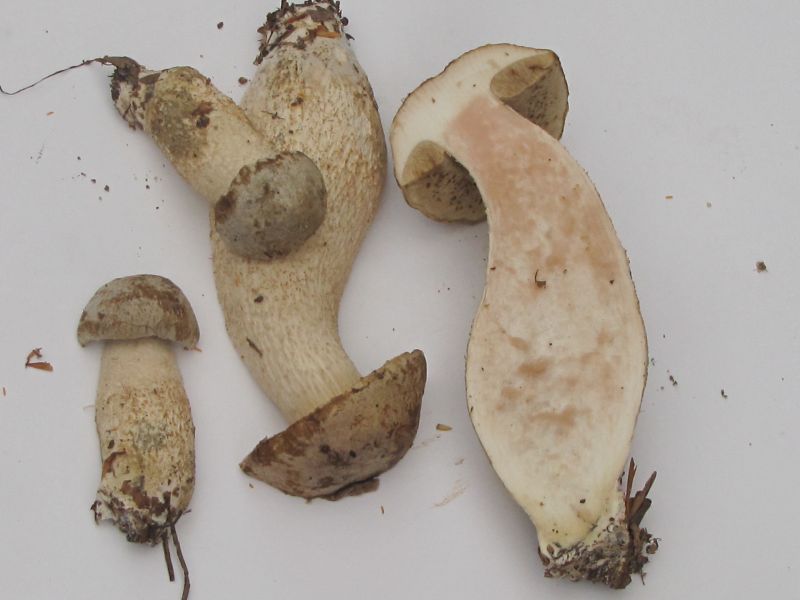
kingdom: Fungi
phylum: Basidiomycota
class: Agaricomycetes
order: Boletales
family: Boletaceae
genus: Leccinum
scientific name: Leccinum scabrum
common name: hvid skælrørhat
